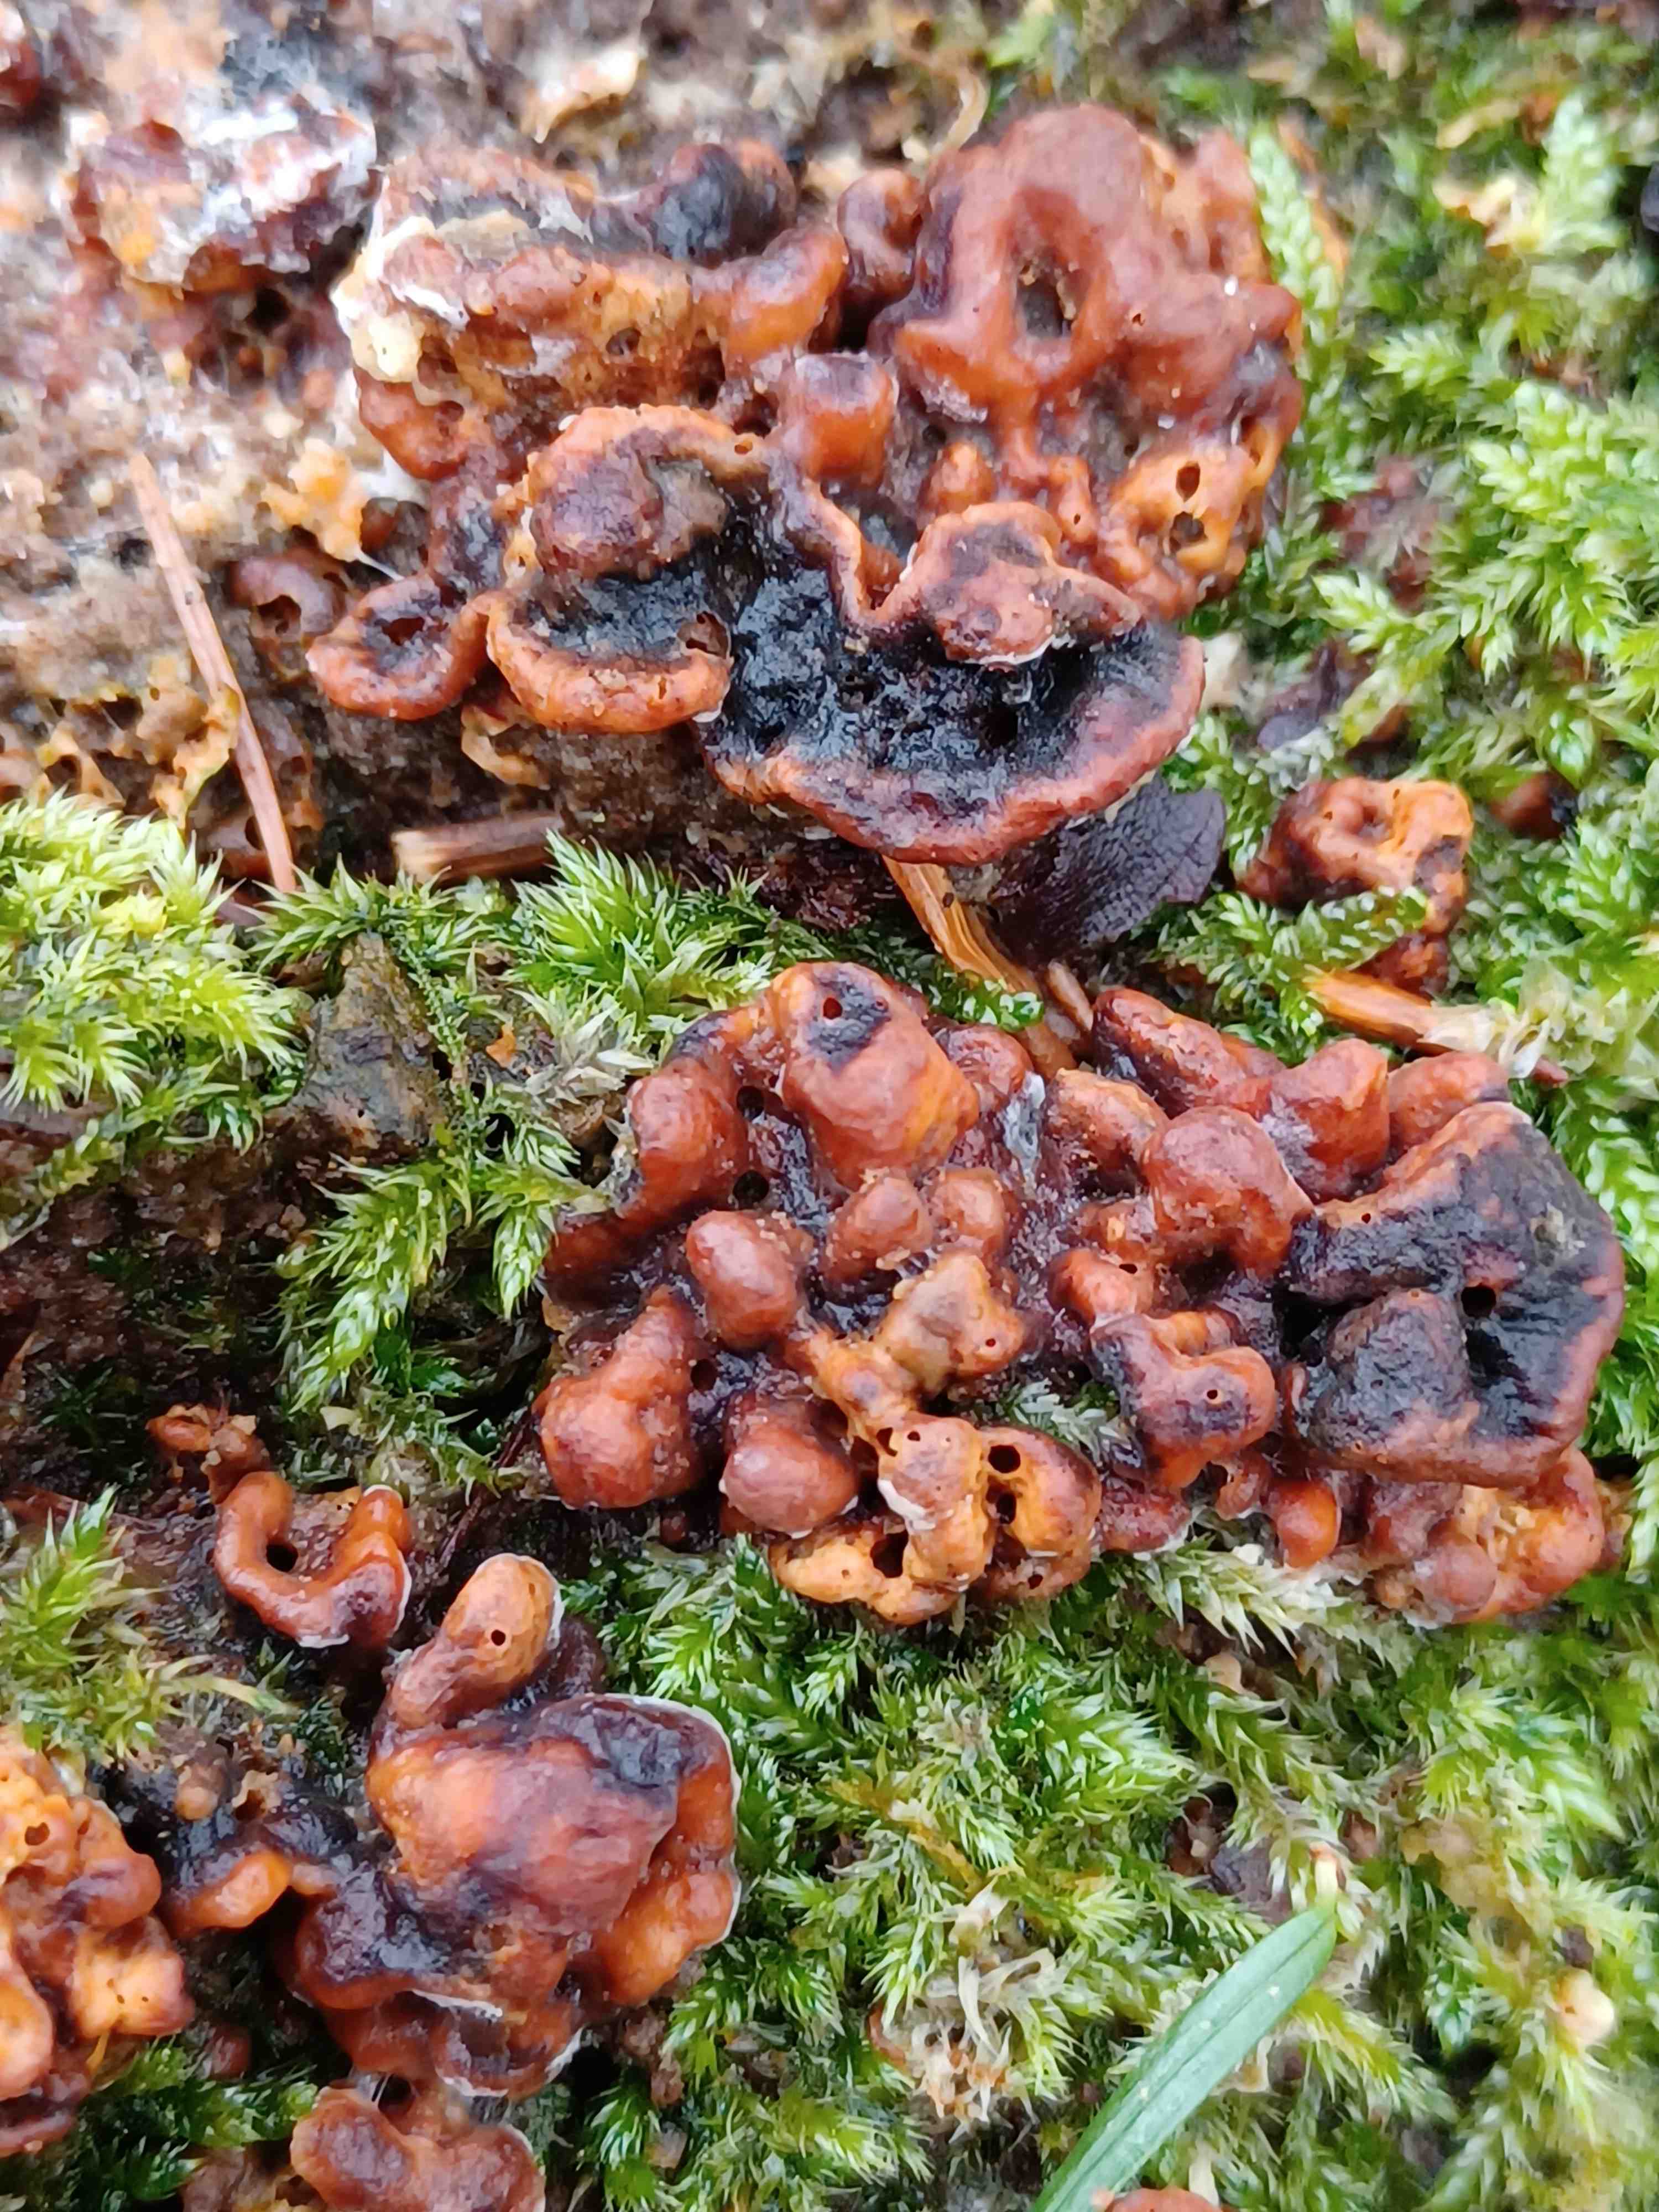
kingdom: Fungi
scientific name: Fungi
